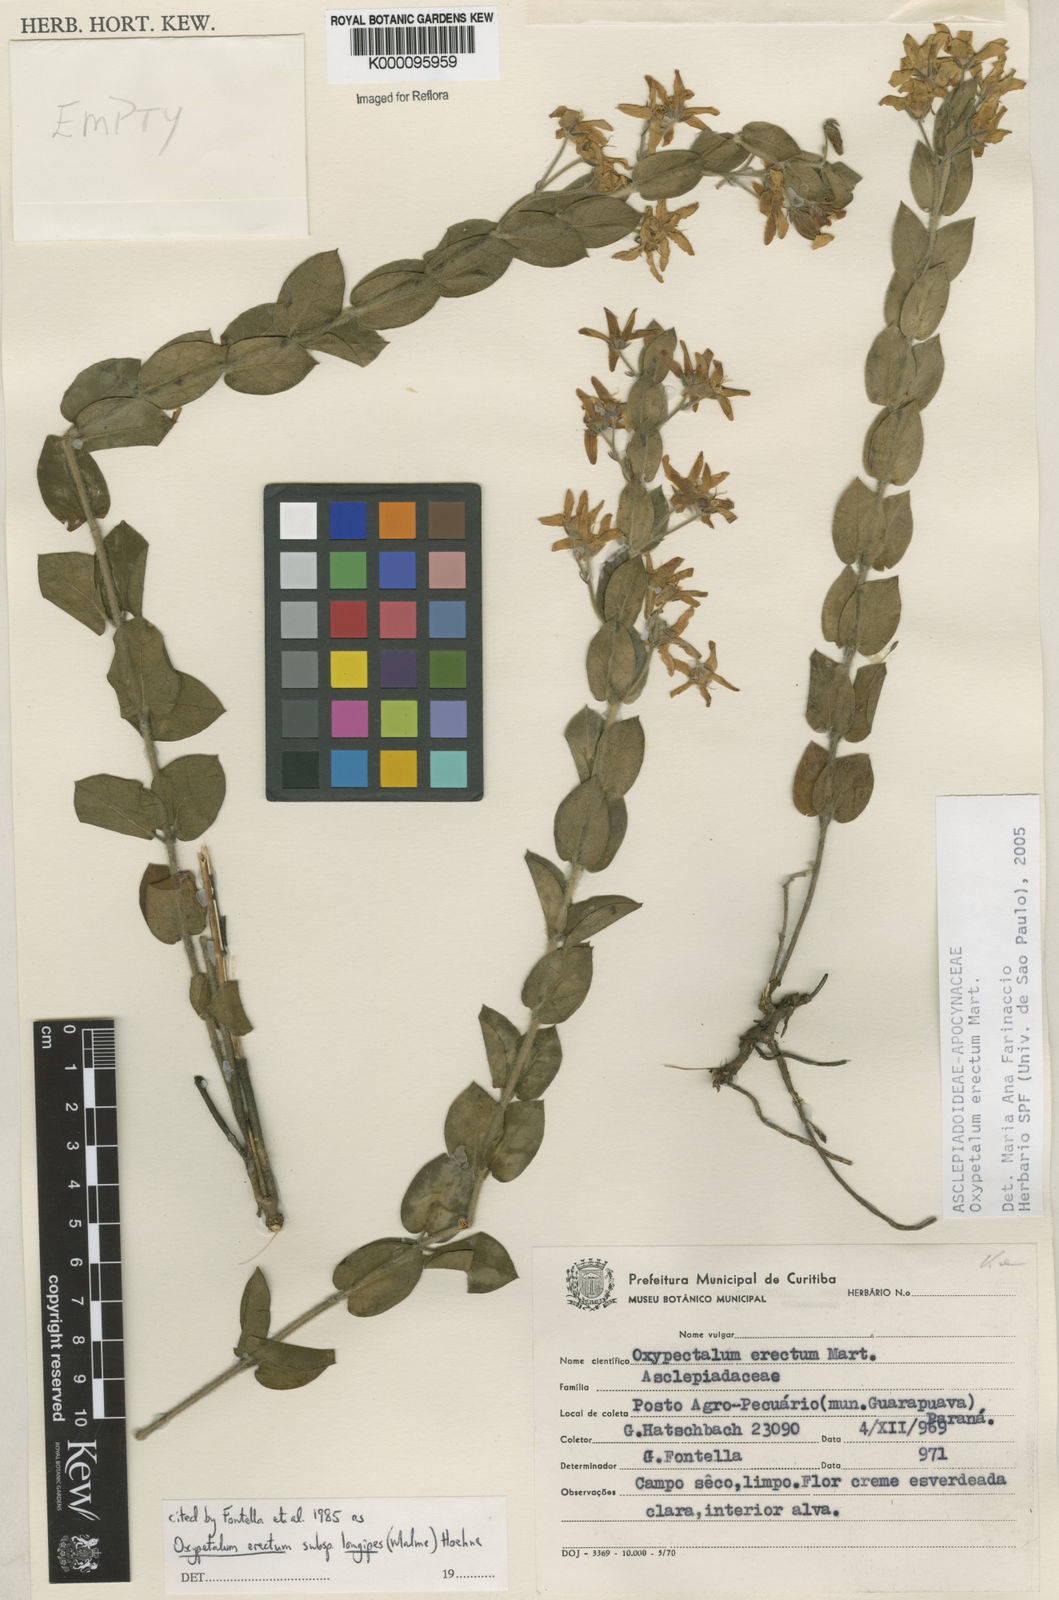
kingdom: Plantae
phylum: Tracheophyta
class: Magnoliopsida
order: Gentianales
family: Apocynaceae
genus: Oxypetalum
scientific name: Oxypetalum erectum
